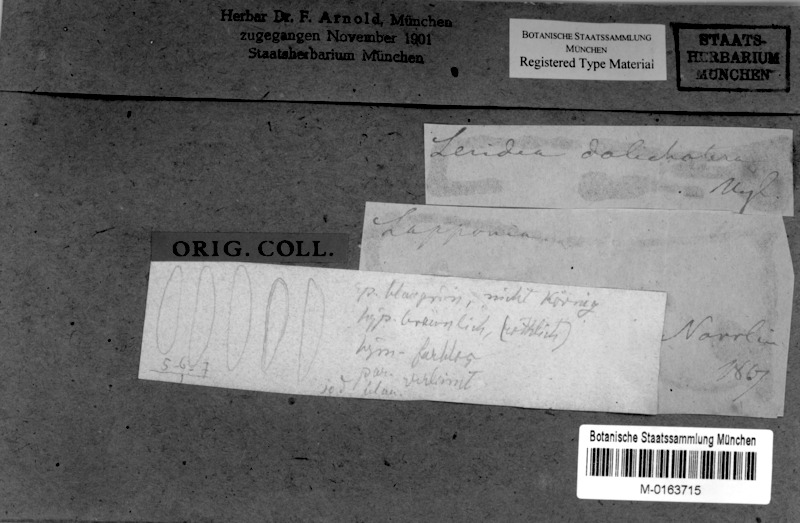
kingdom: Fungi
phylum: Ascomycota
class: Dothideomycetes
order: Mycosphaerellales
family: Mycosphaerellaceae
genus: Sphaerulina
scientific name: Sphaerulina dolichotera
